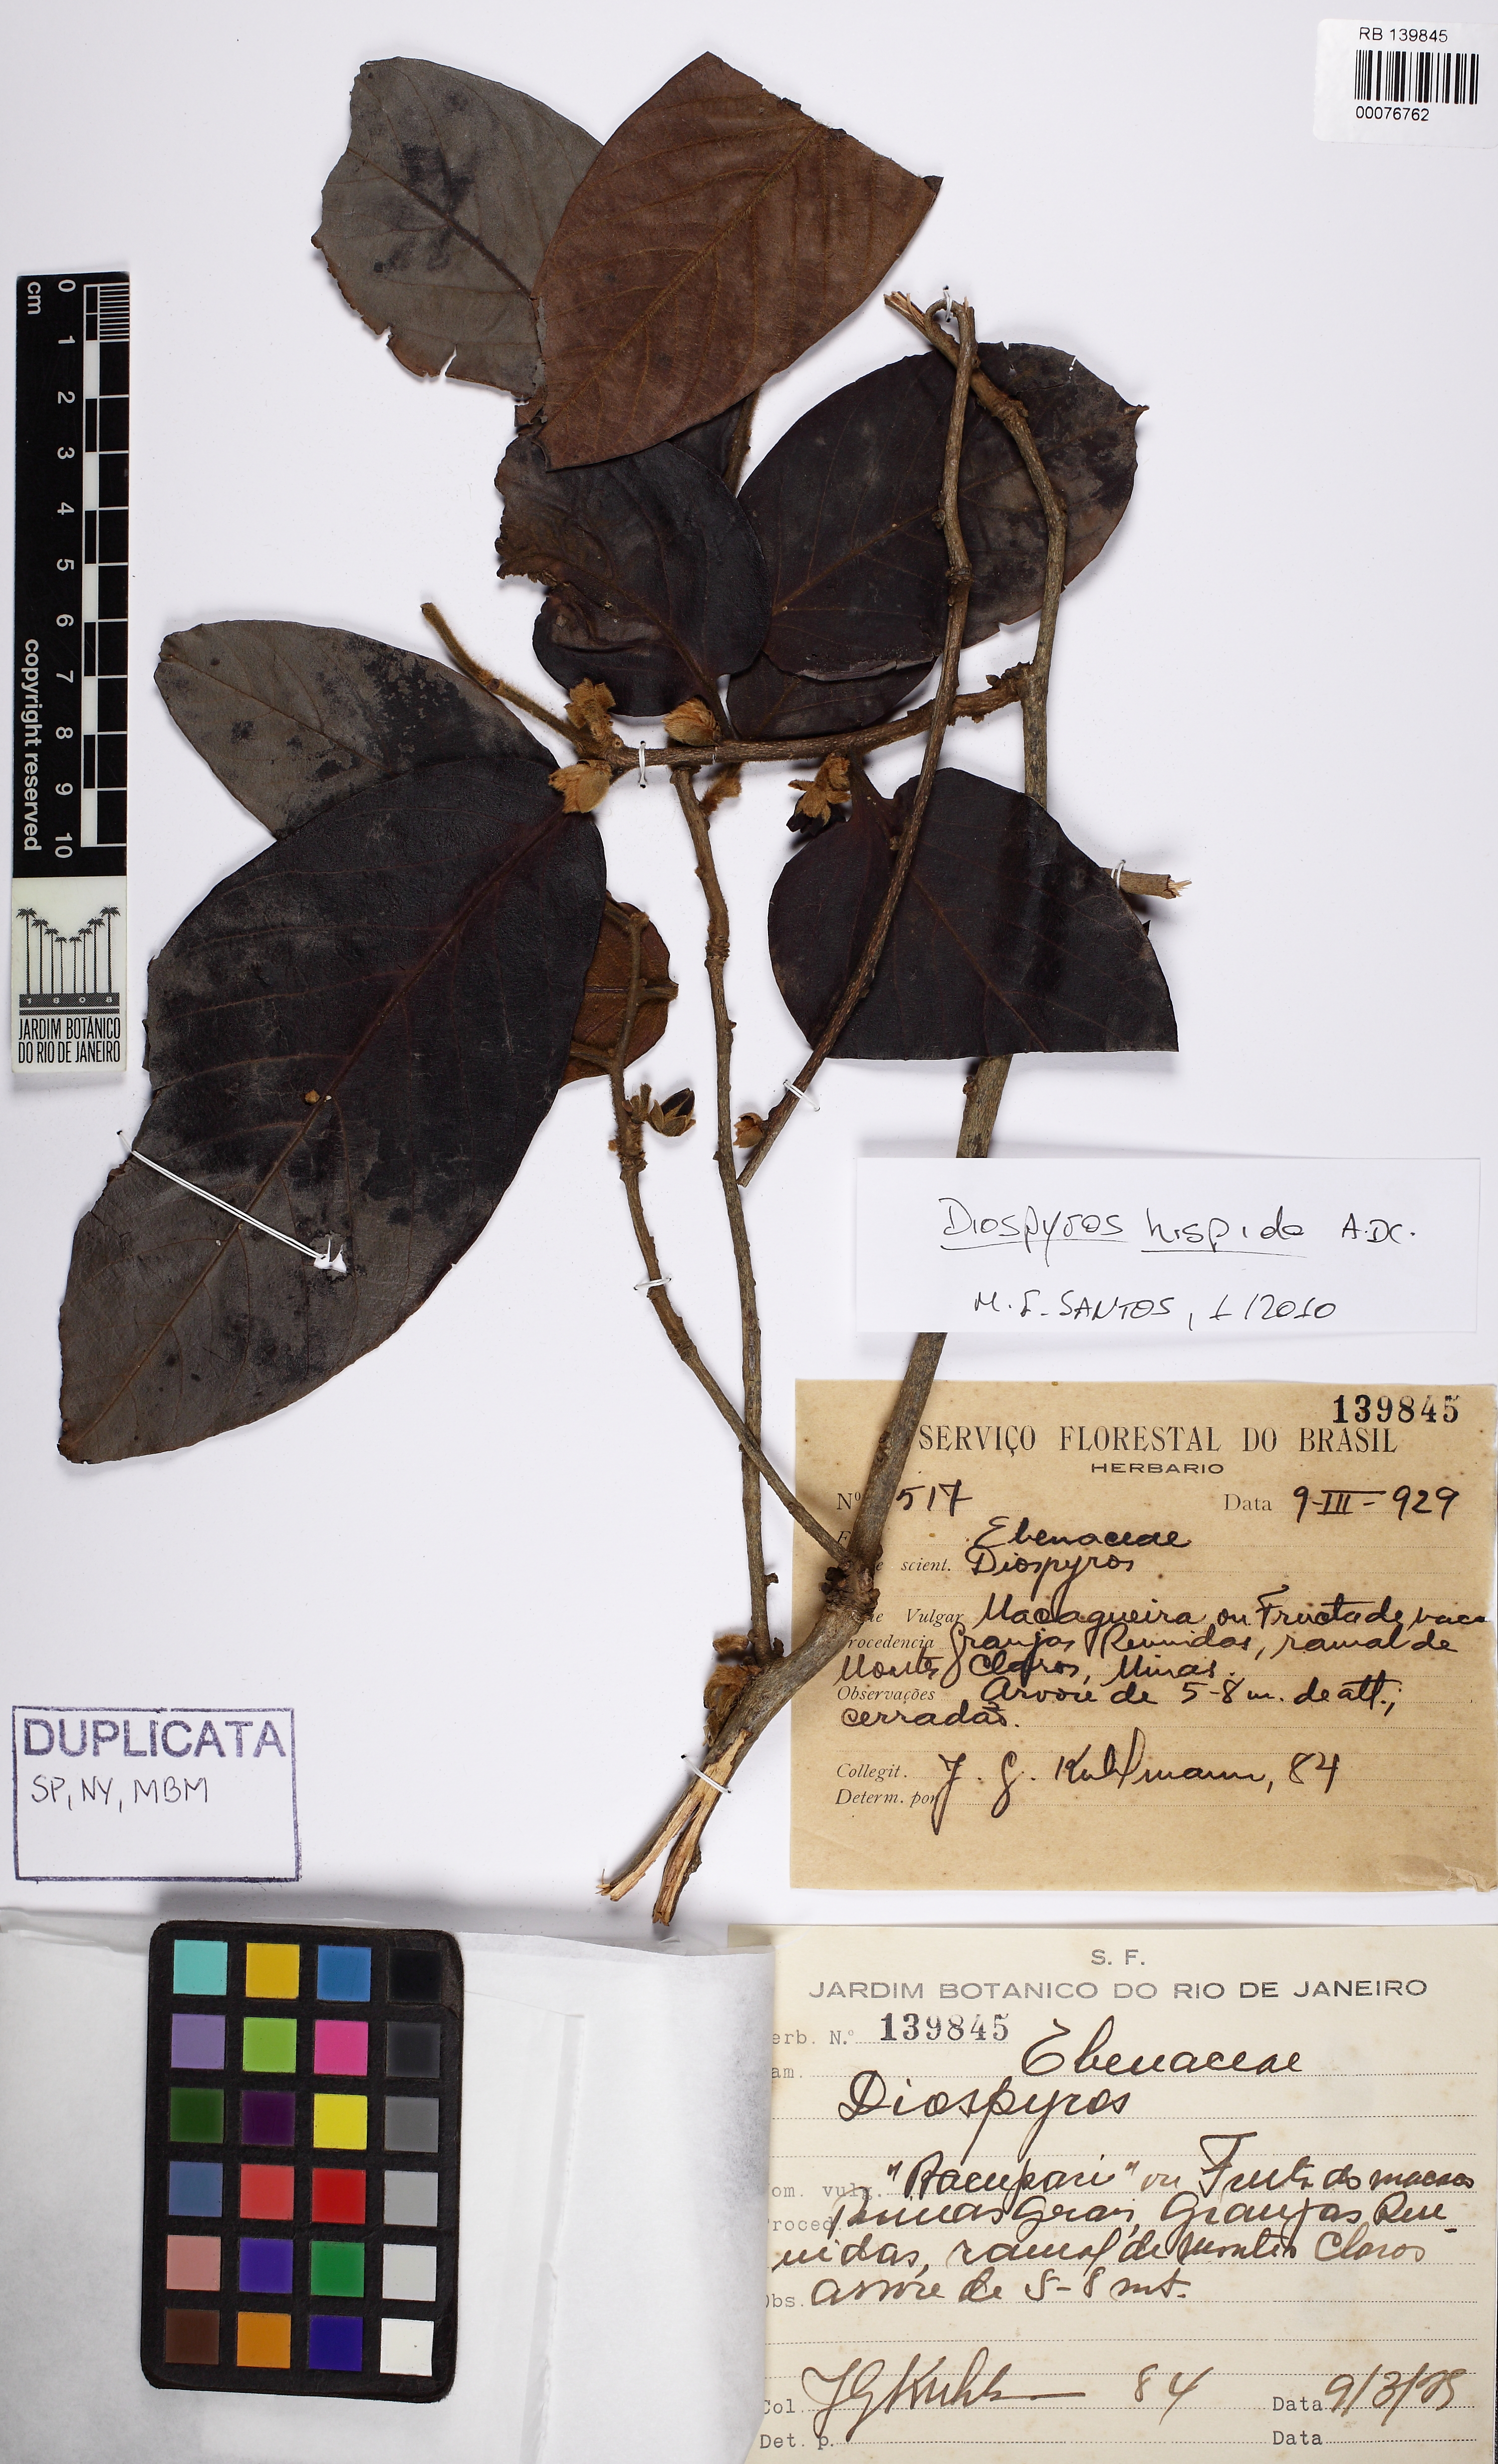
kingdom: Plantae
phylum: Tracheophyta
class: Magnoliopsida
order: Ericales
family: Ebenaceae
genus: Diospyros
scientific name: Diospyros lasiocalyx
